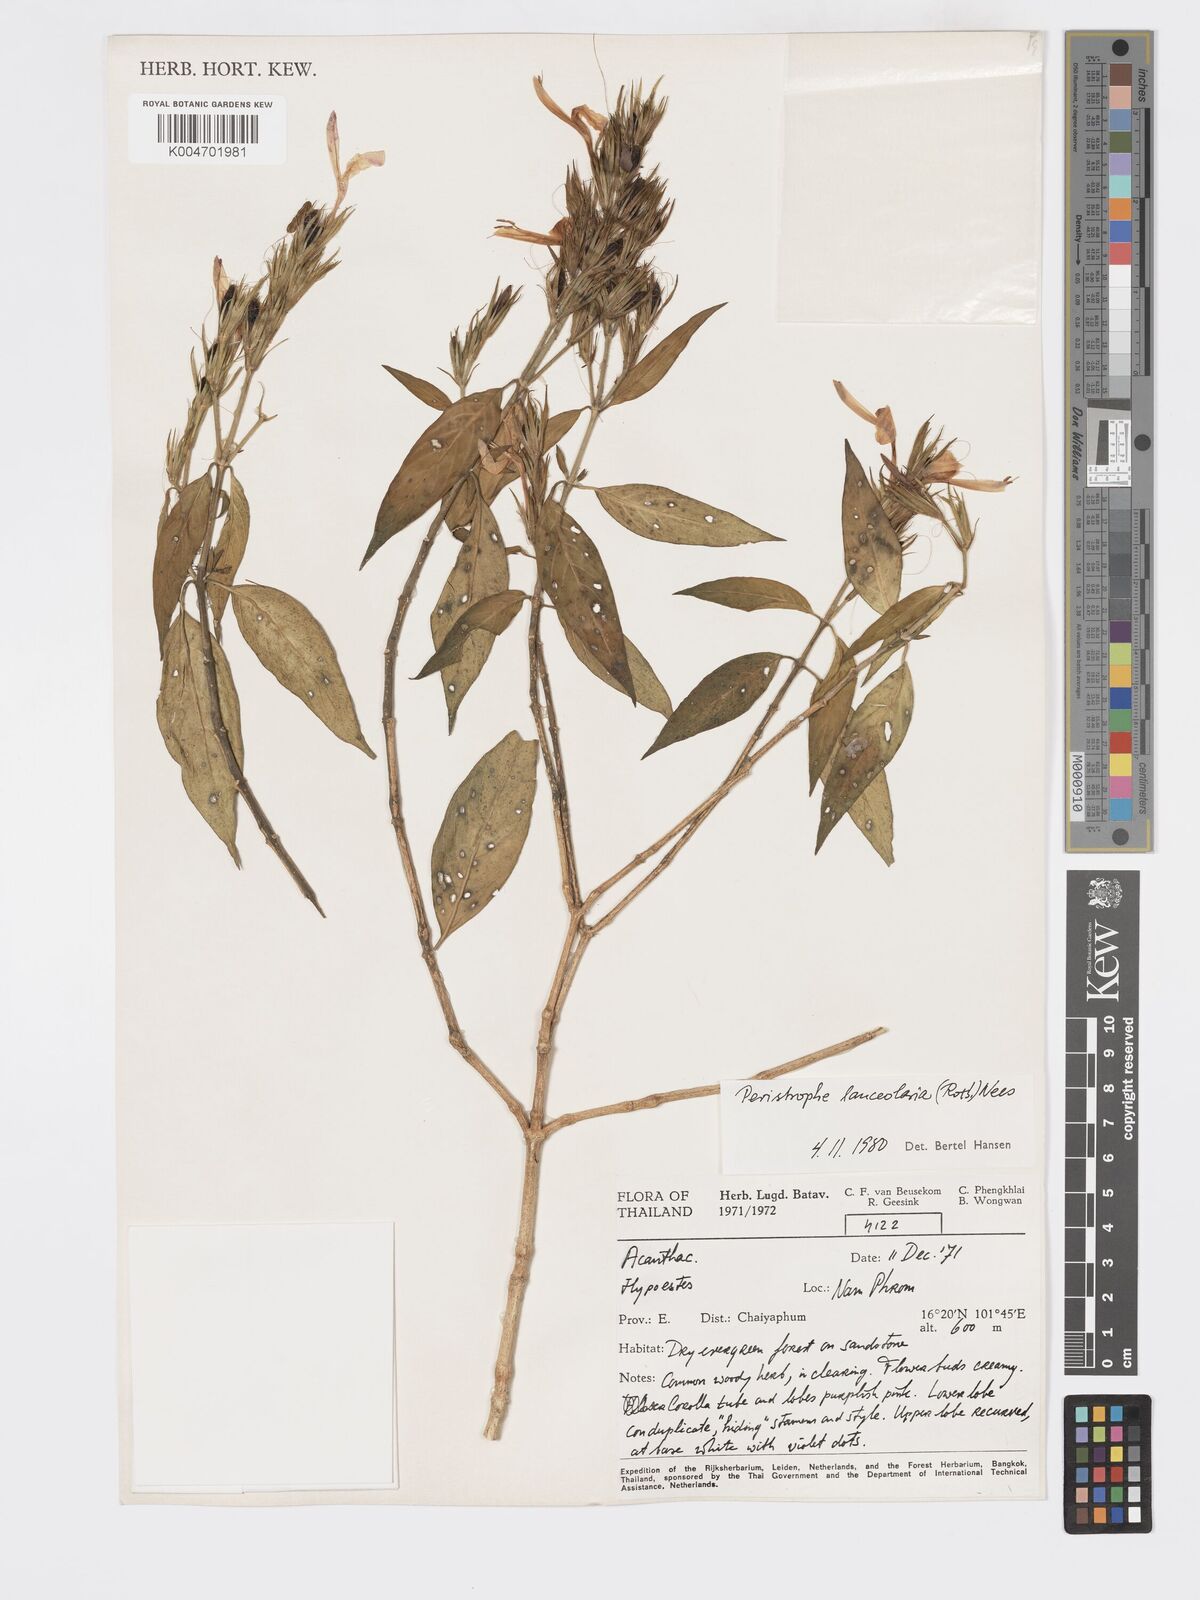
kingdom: Plantae
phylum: Tracheophyta
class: Magnoliopsida
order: Lamiales
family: Acanthaceae
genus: Dicliptera
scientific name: Dicliptera lanceolaria
